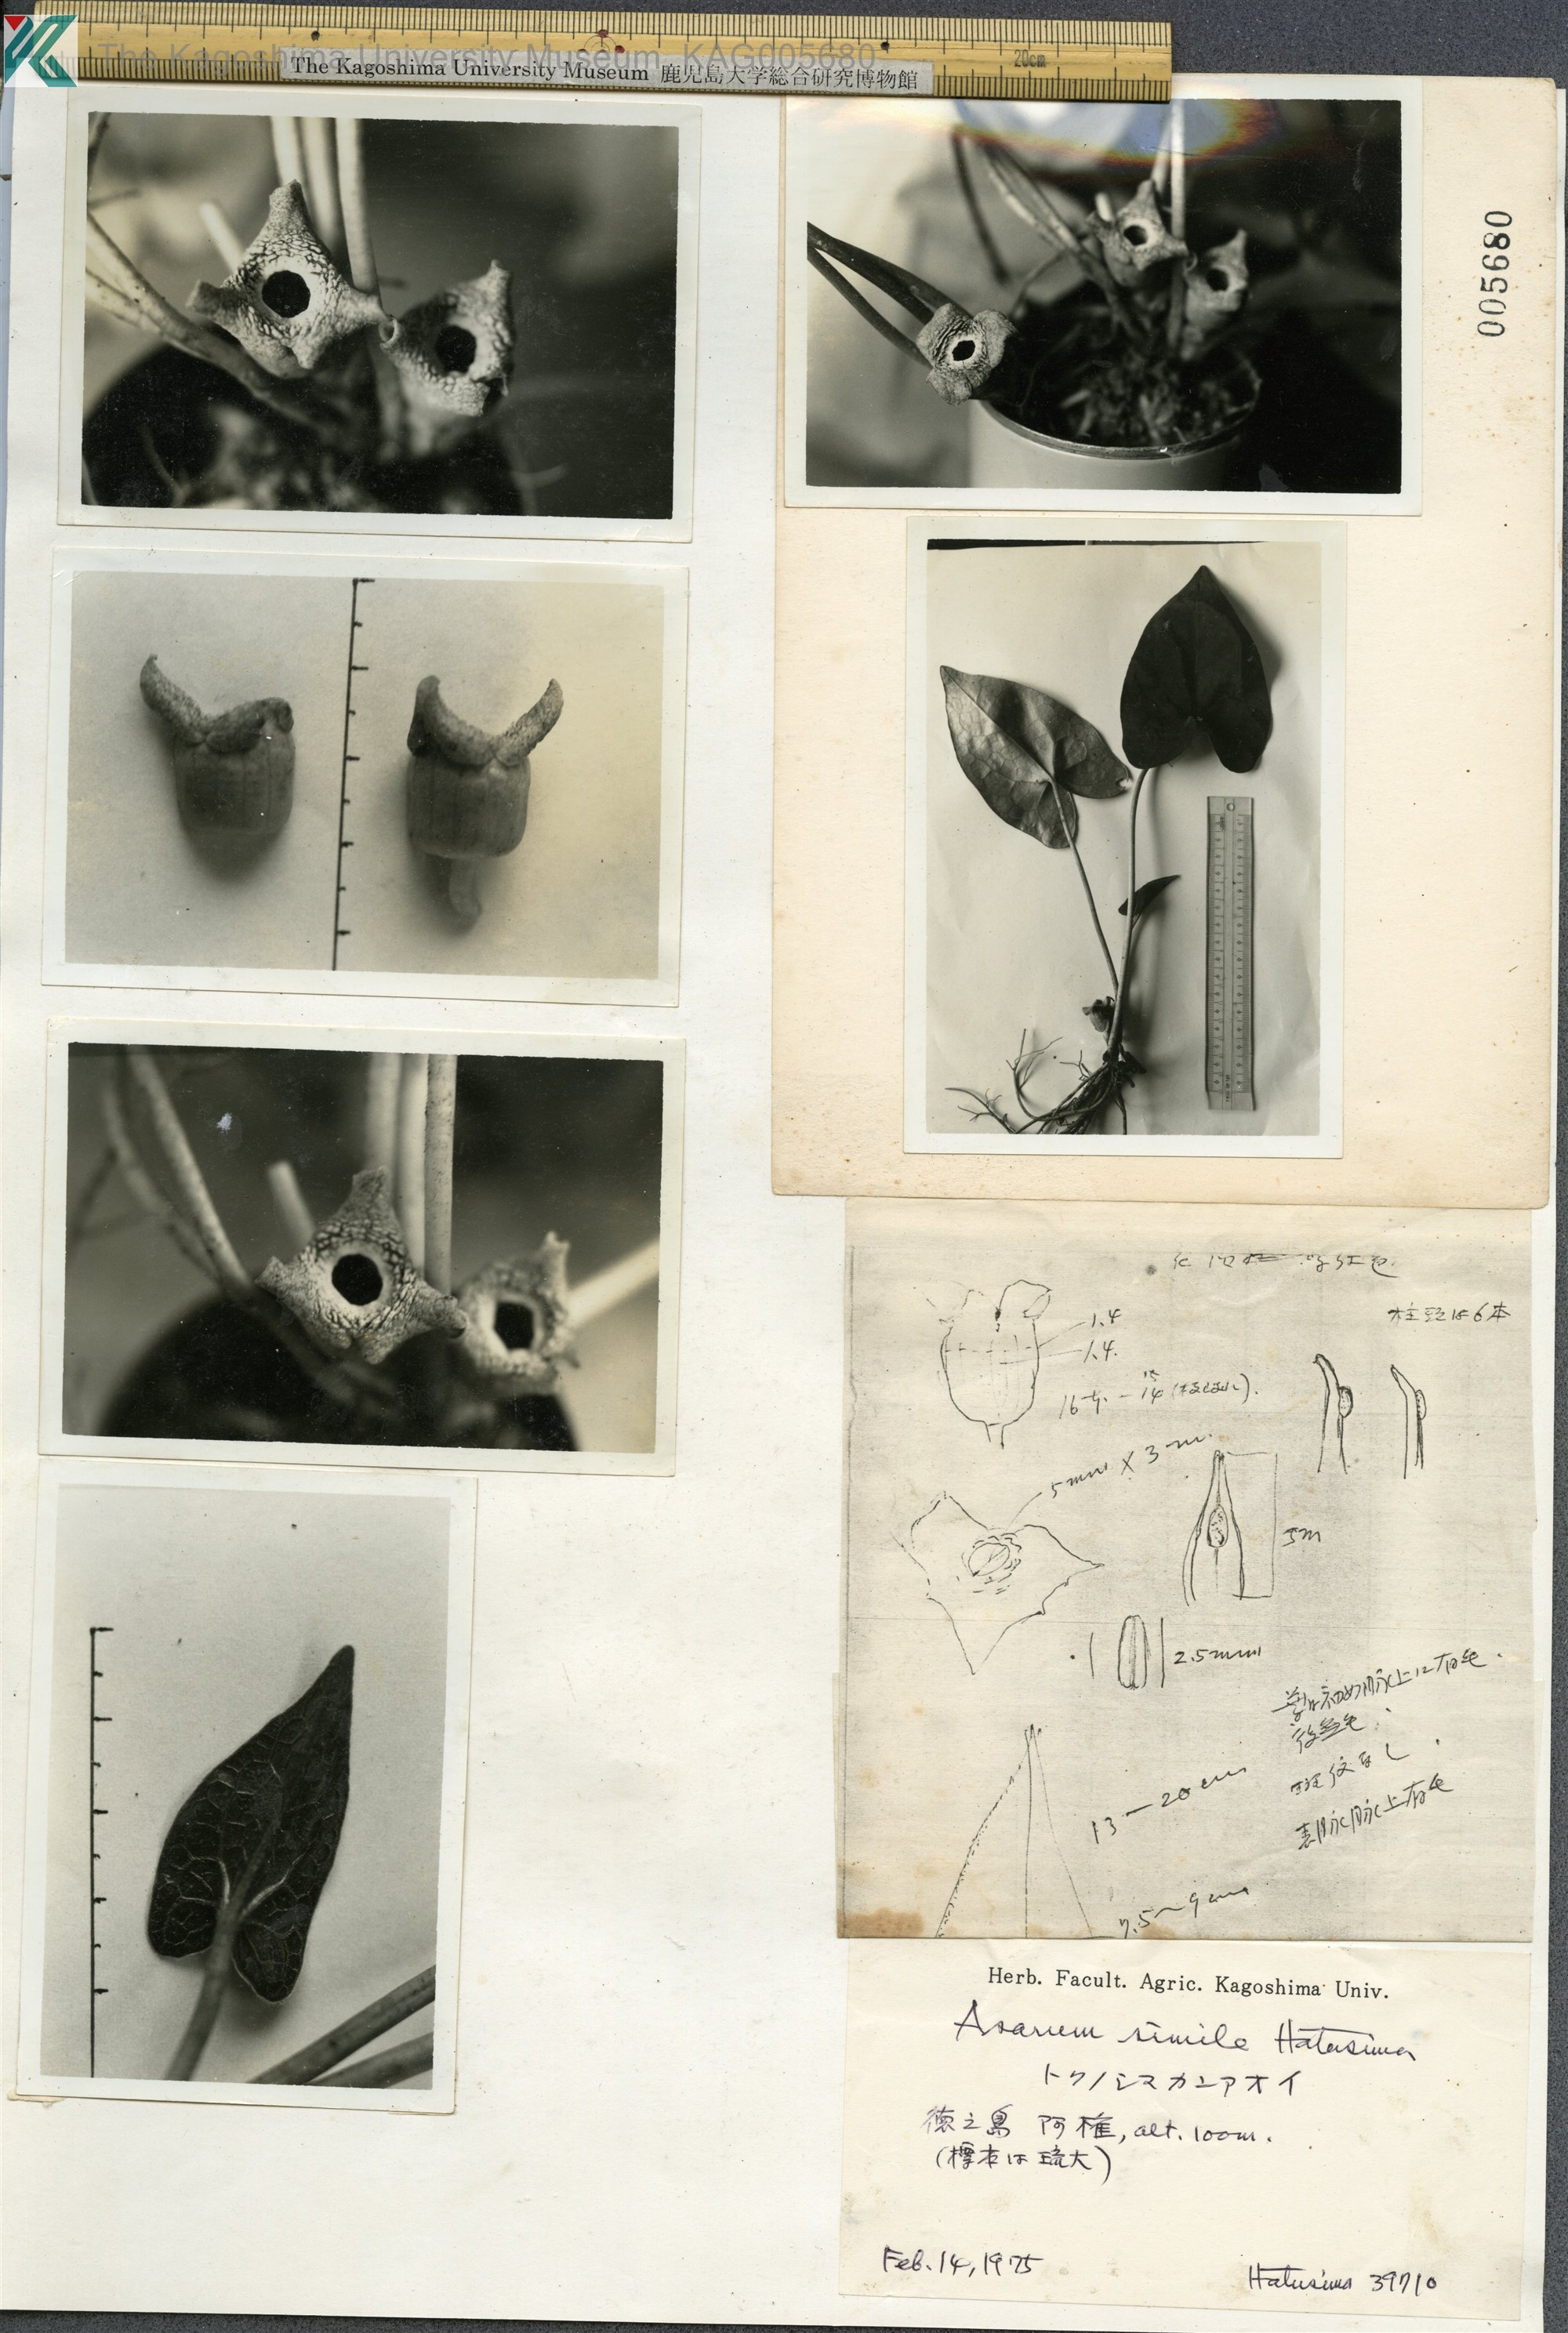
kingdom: Plantae
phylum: Tracheophyta
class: Magnoliopsida
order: Piperales
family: Aristolochiaceae
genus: Asarum
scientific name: Asarum simile
